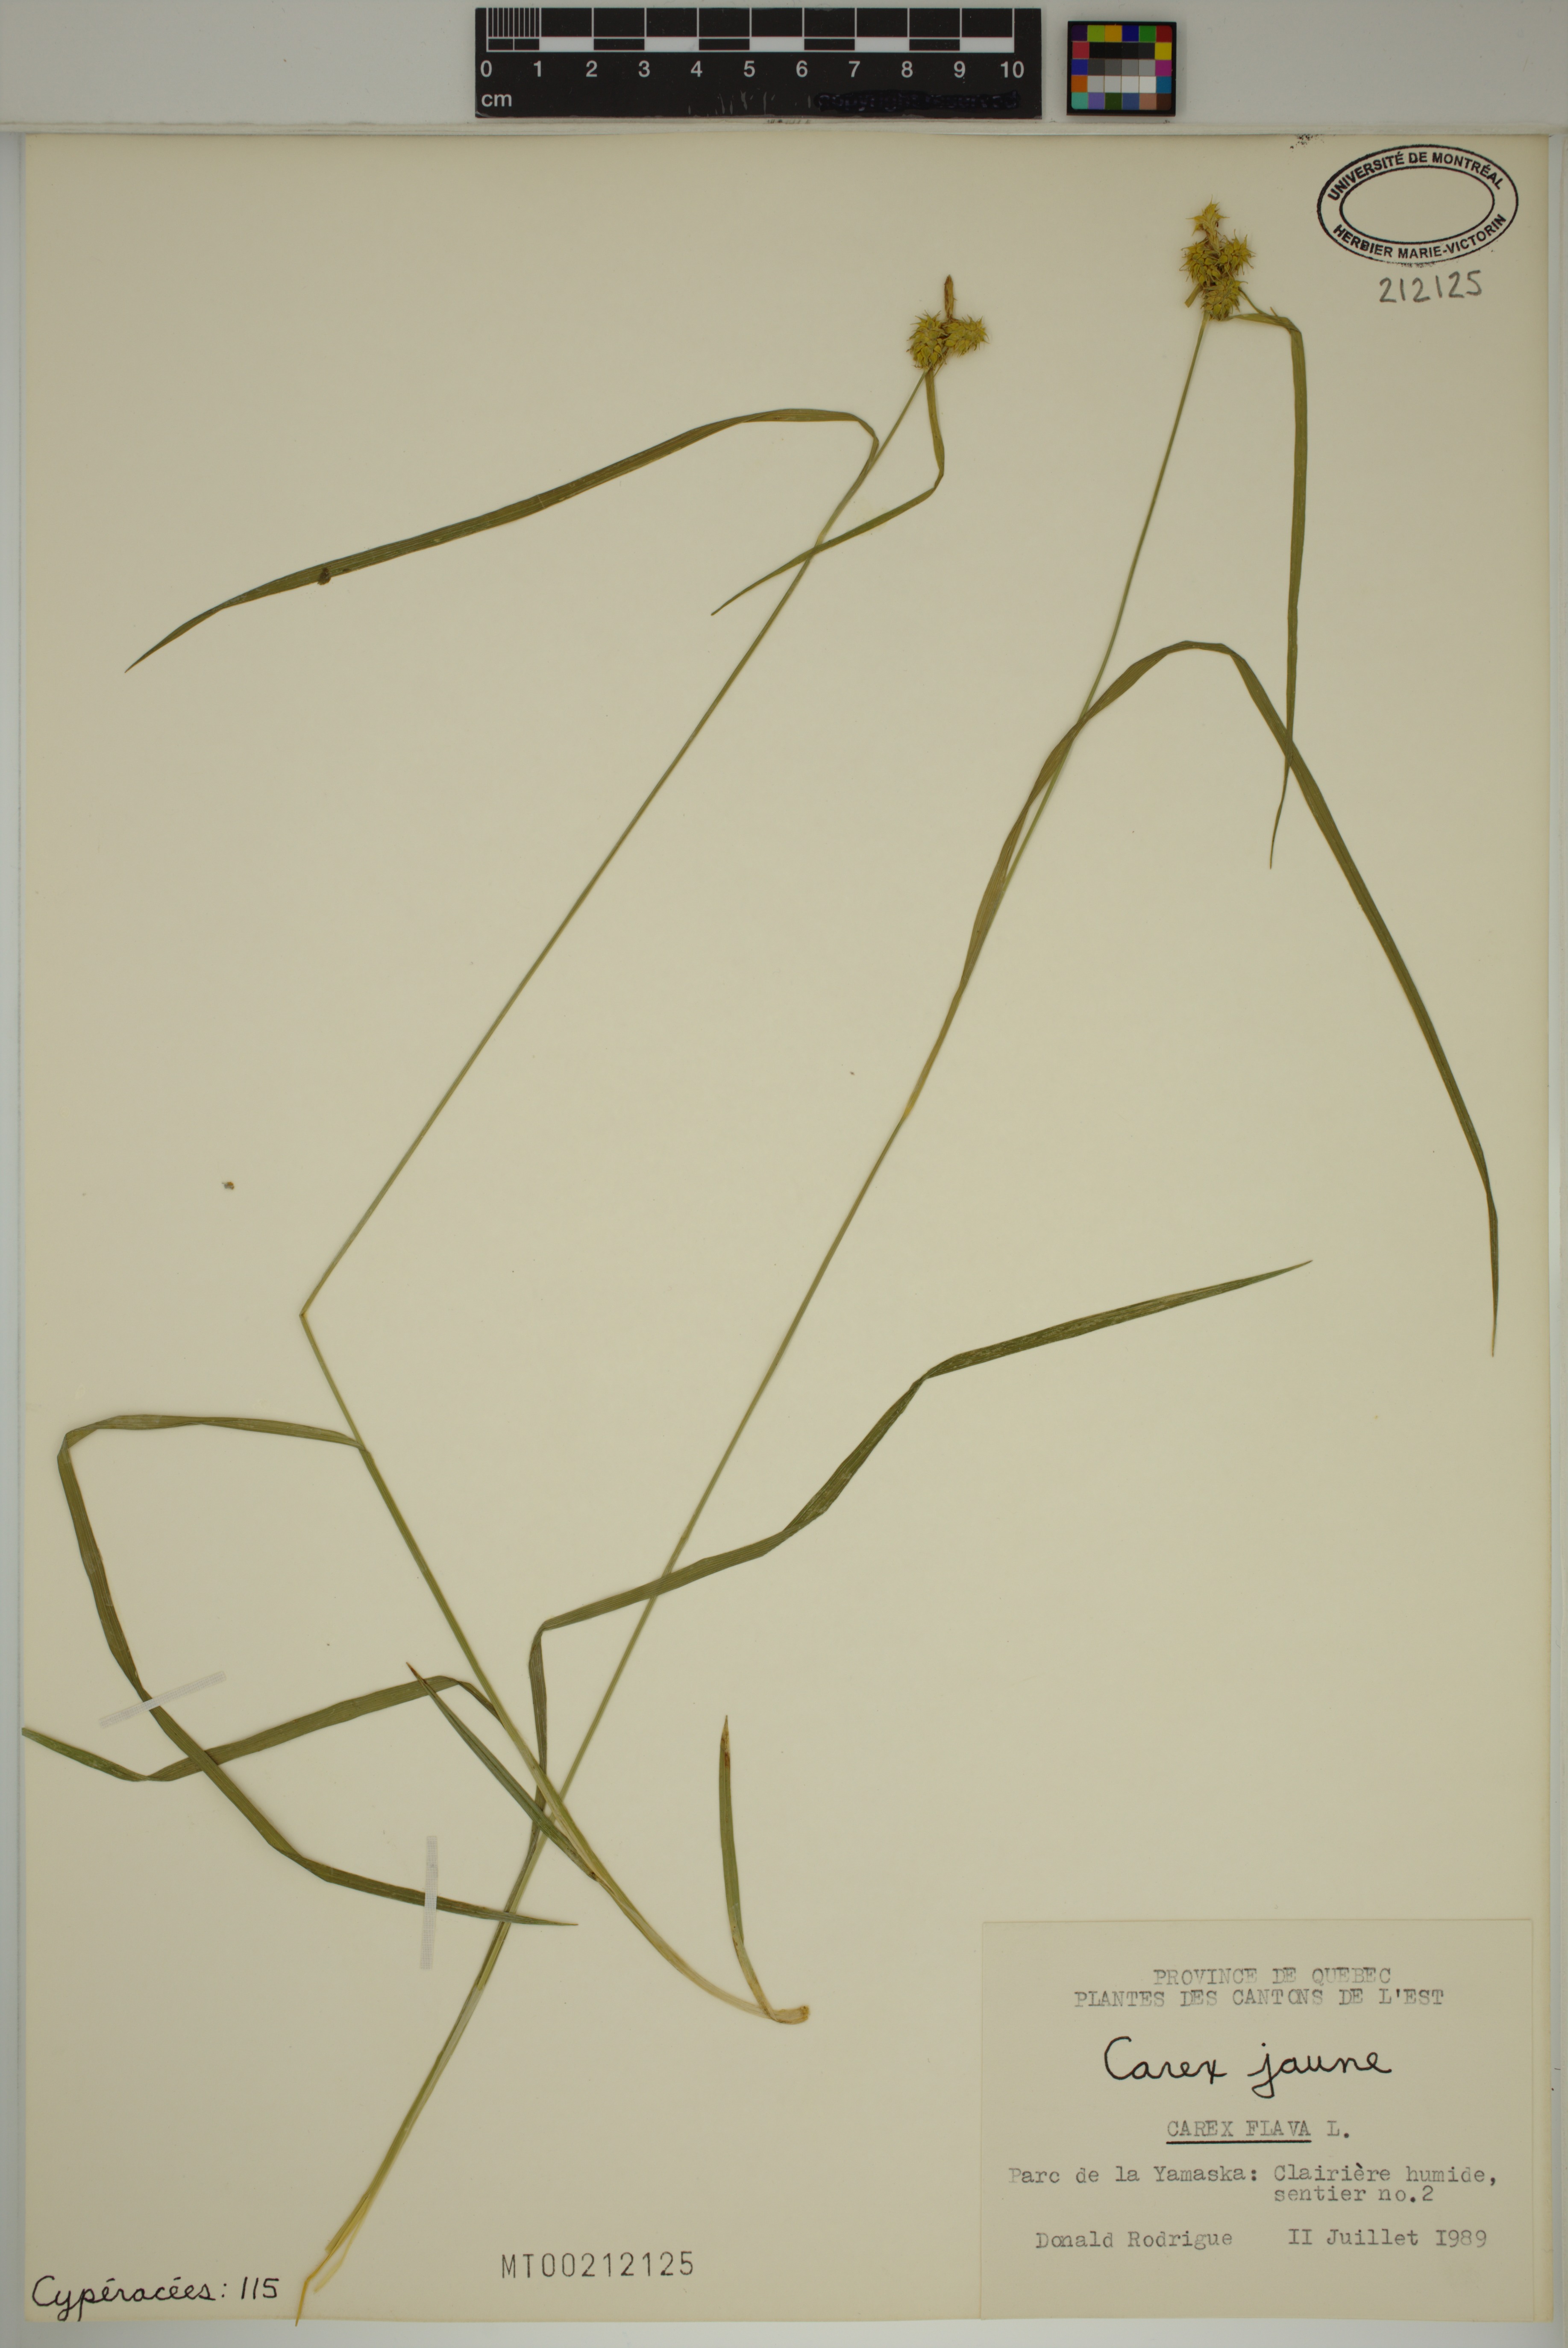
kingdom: Plantae
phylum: Tracheophyta
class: Liliopsida
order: Poales
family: Cyperaceae
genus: Carex
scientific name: Carex flava
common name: Large yellow-sedge
